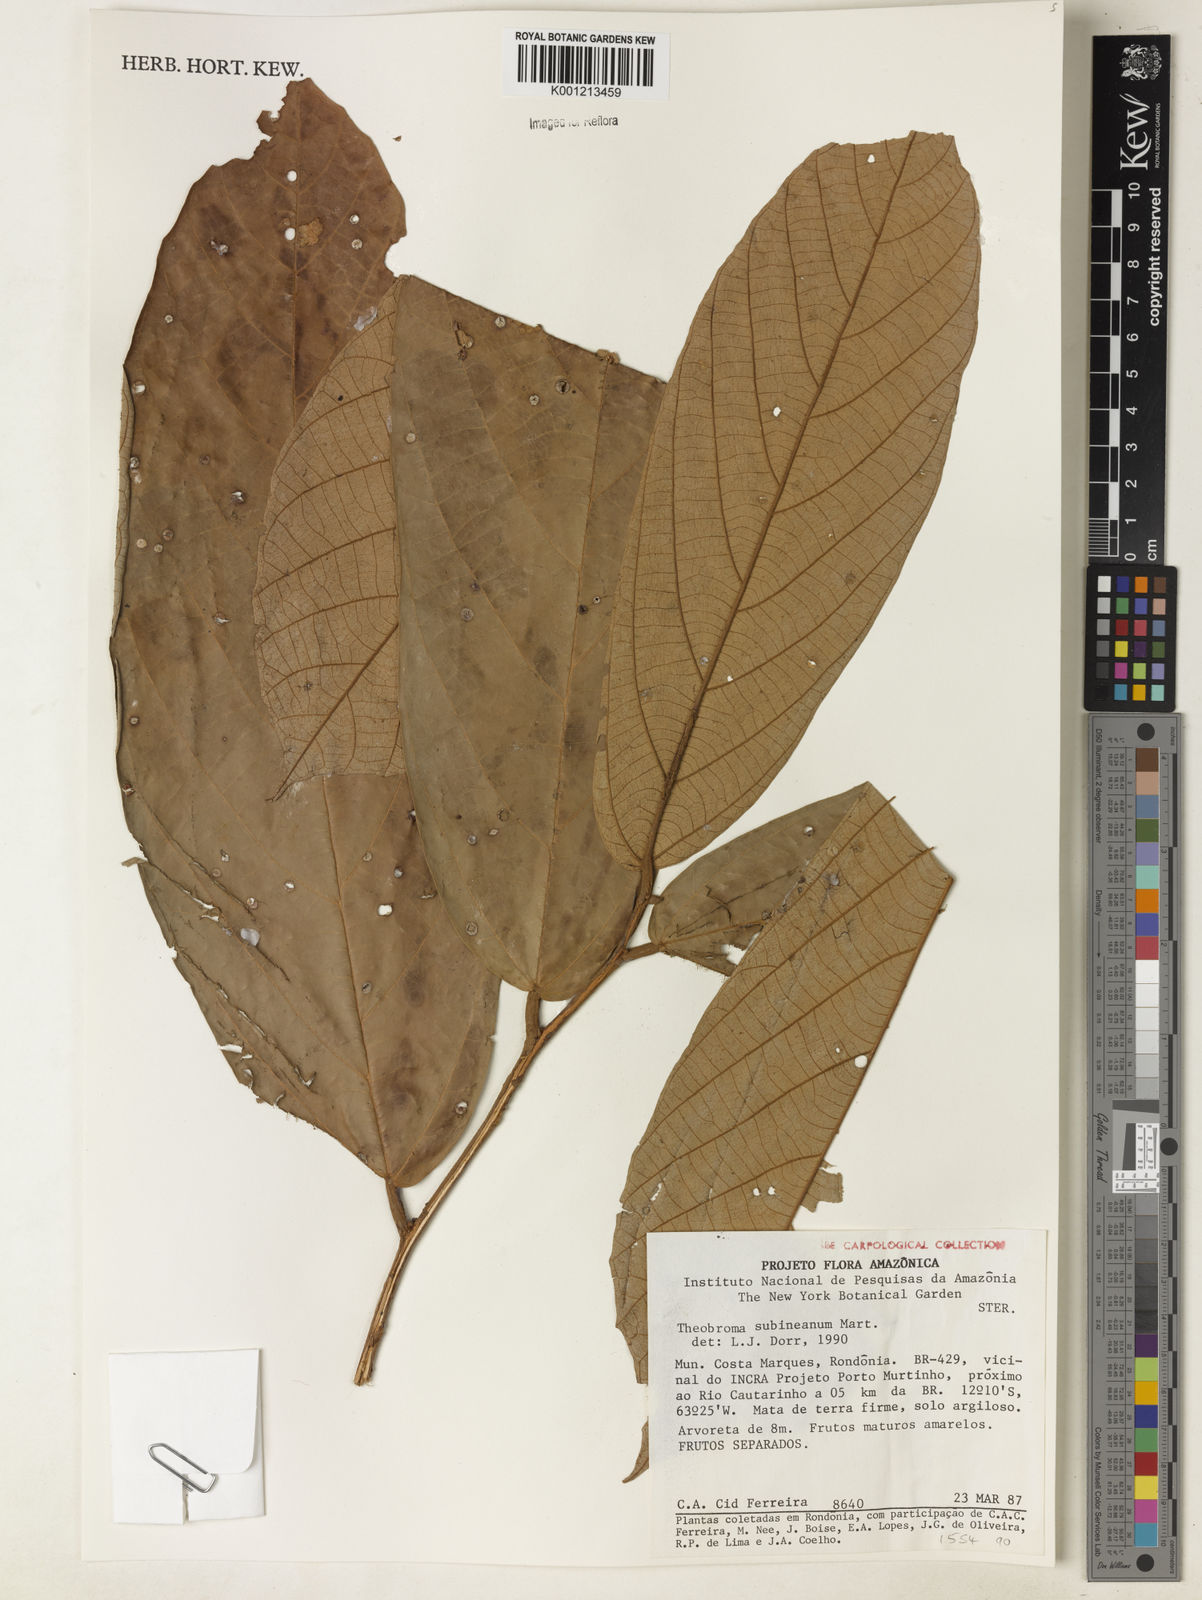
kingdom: Plantae
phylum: Tracheophyta
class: Magnoliopsida
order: Malvales
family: Malvaceae
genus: Theobroma
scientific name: Theobroma subincanum
